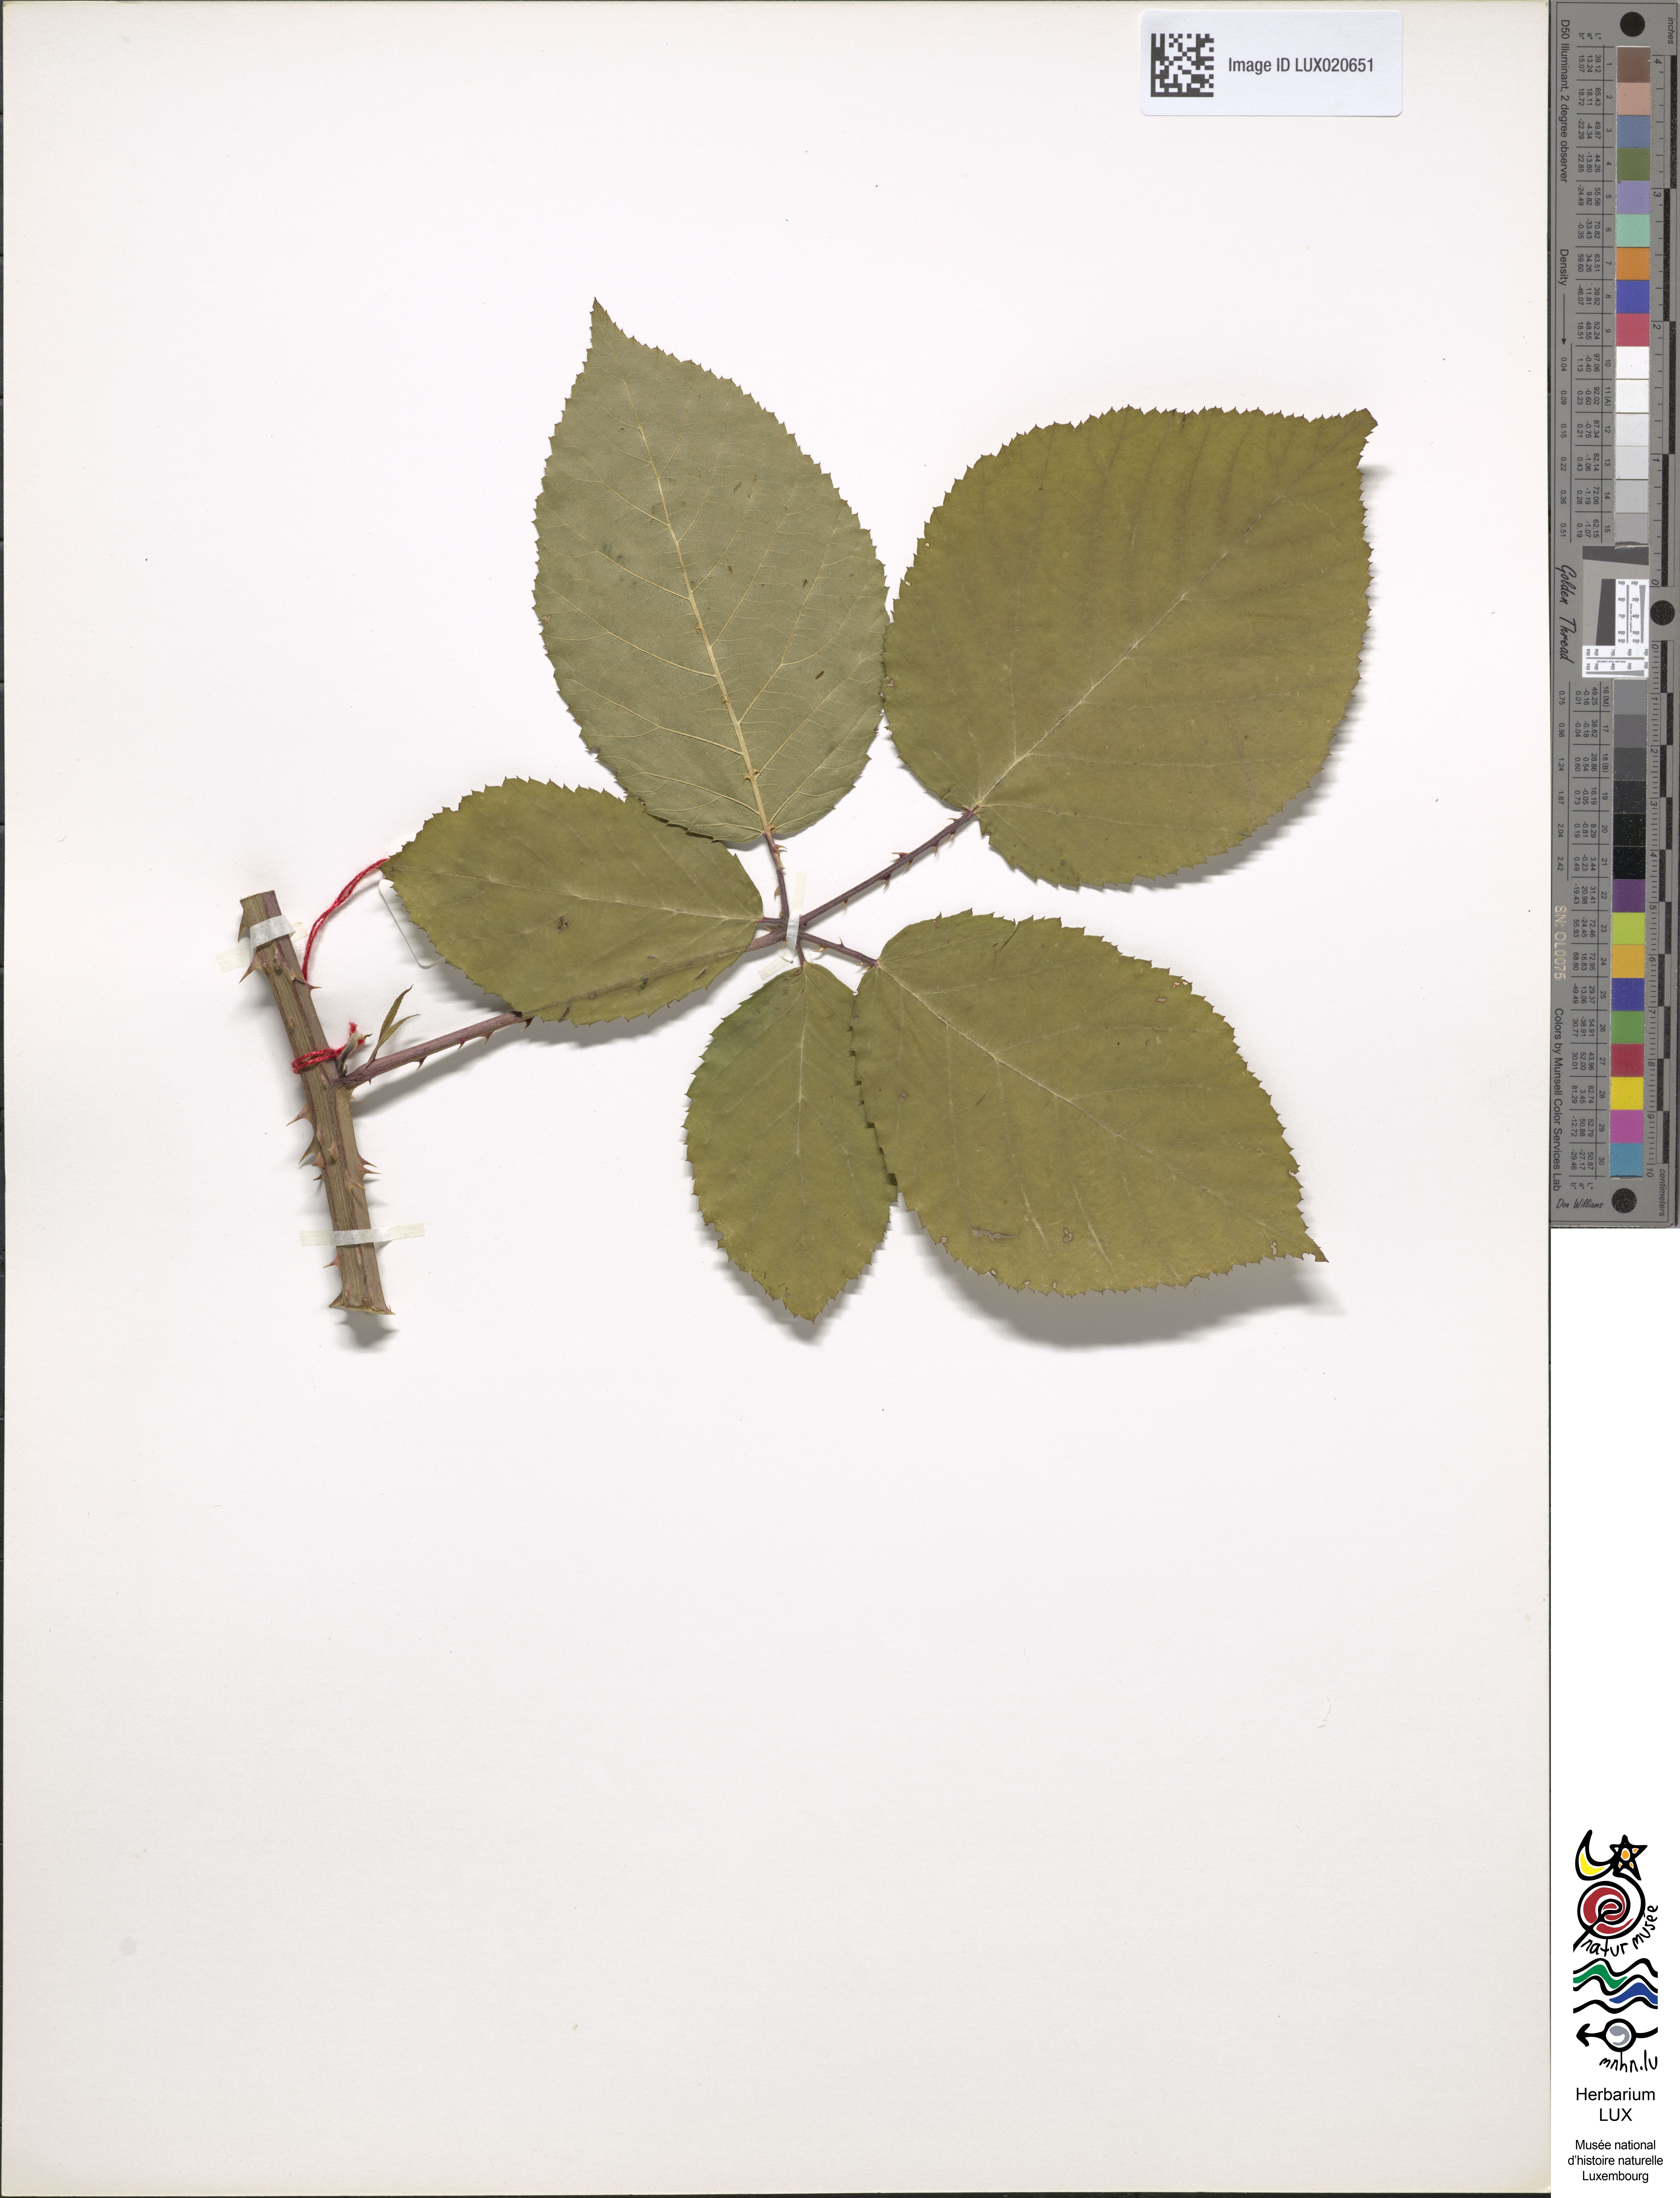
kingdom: Plantae
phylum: Tracheophyta
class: Magnoliopsida
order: Rosales
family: Rosaceae
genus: Rubus
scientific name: Rubus gremlii
